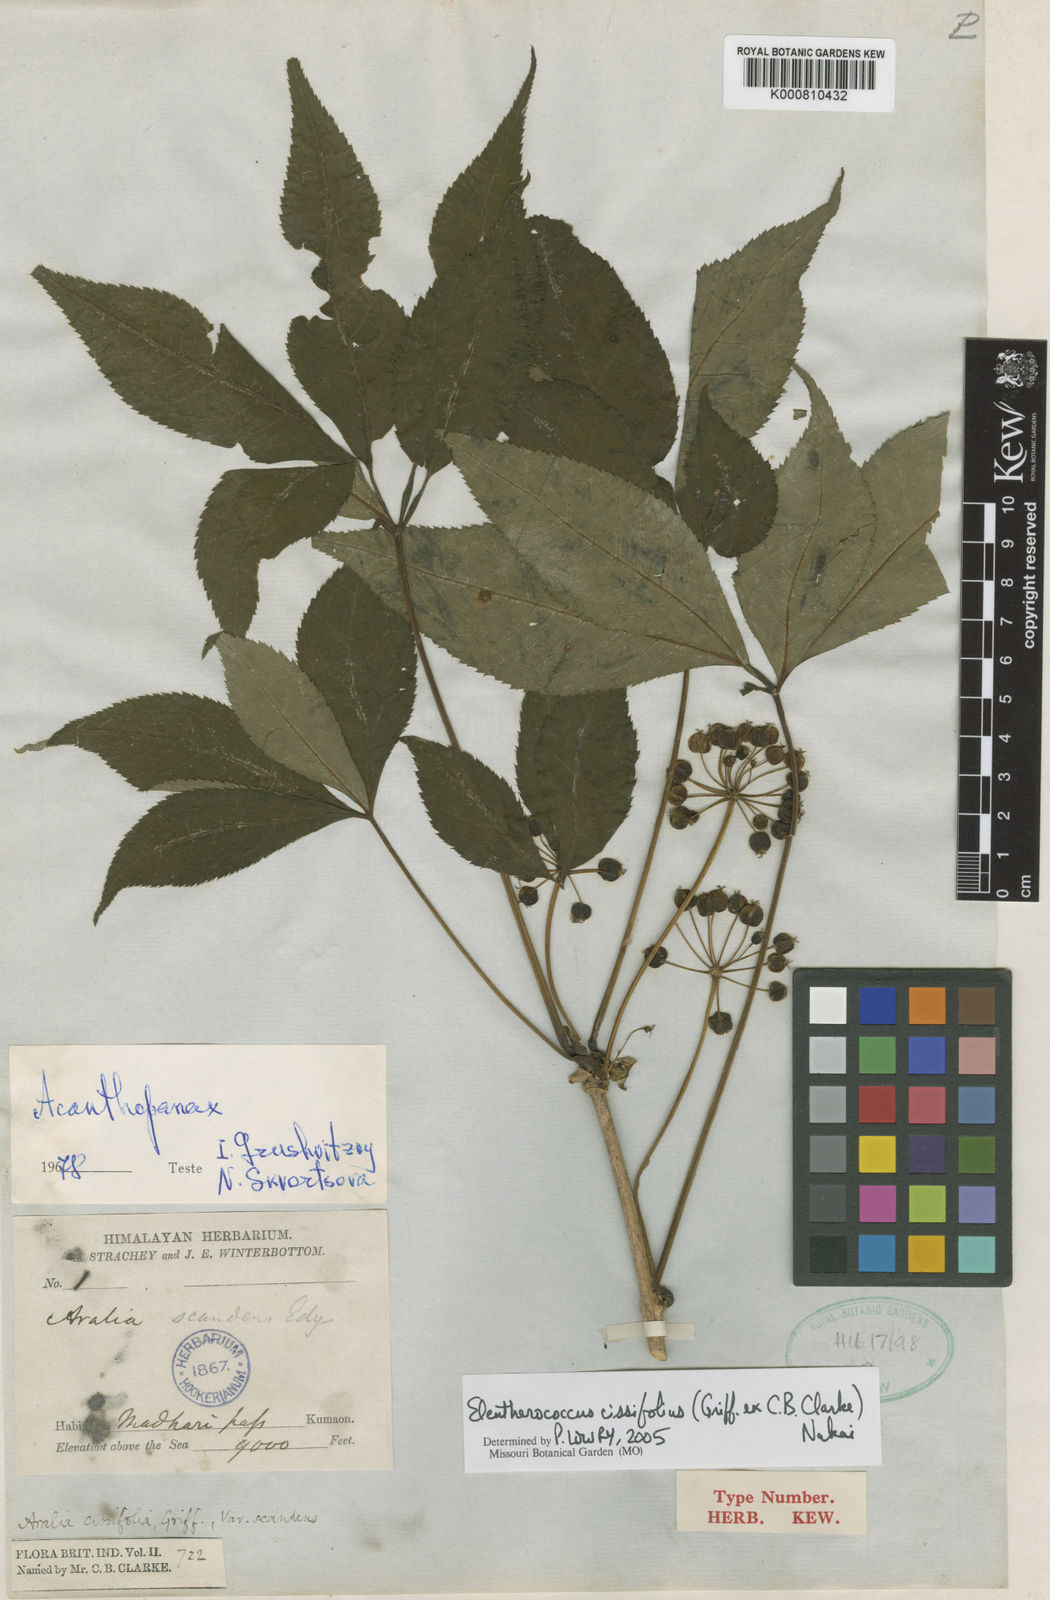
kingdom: Plantae
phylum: Tracheophyta
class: Magnoliopsida
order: Apiales
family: Araliaceae
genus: Eleutherococcus
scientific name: Eleutherococcus cissifolius
